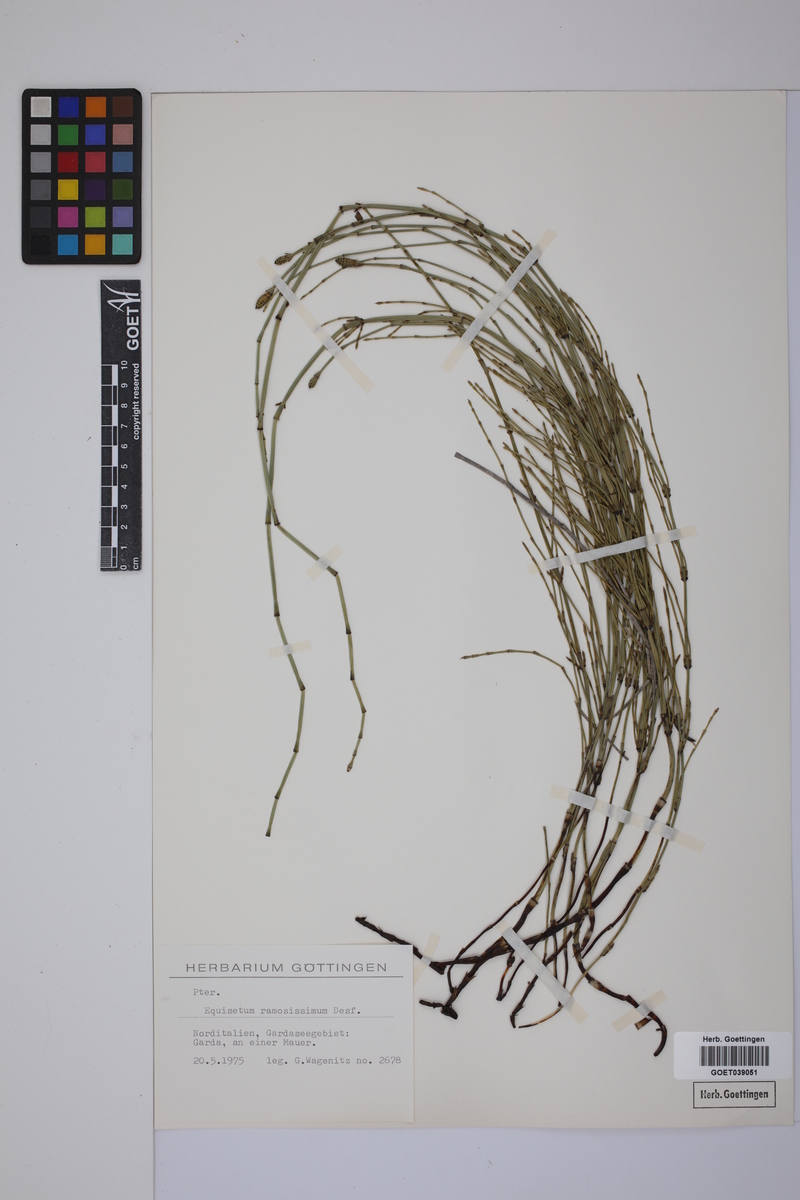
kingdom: Plantae
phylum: Tracheophyta
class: Polypodiopsida
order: Equisetales
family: Equisetaceae
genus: Equisetum
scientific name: Equisetum giganteum
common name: Giant horsetail
